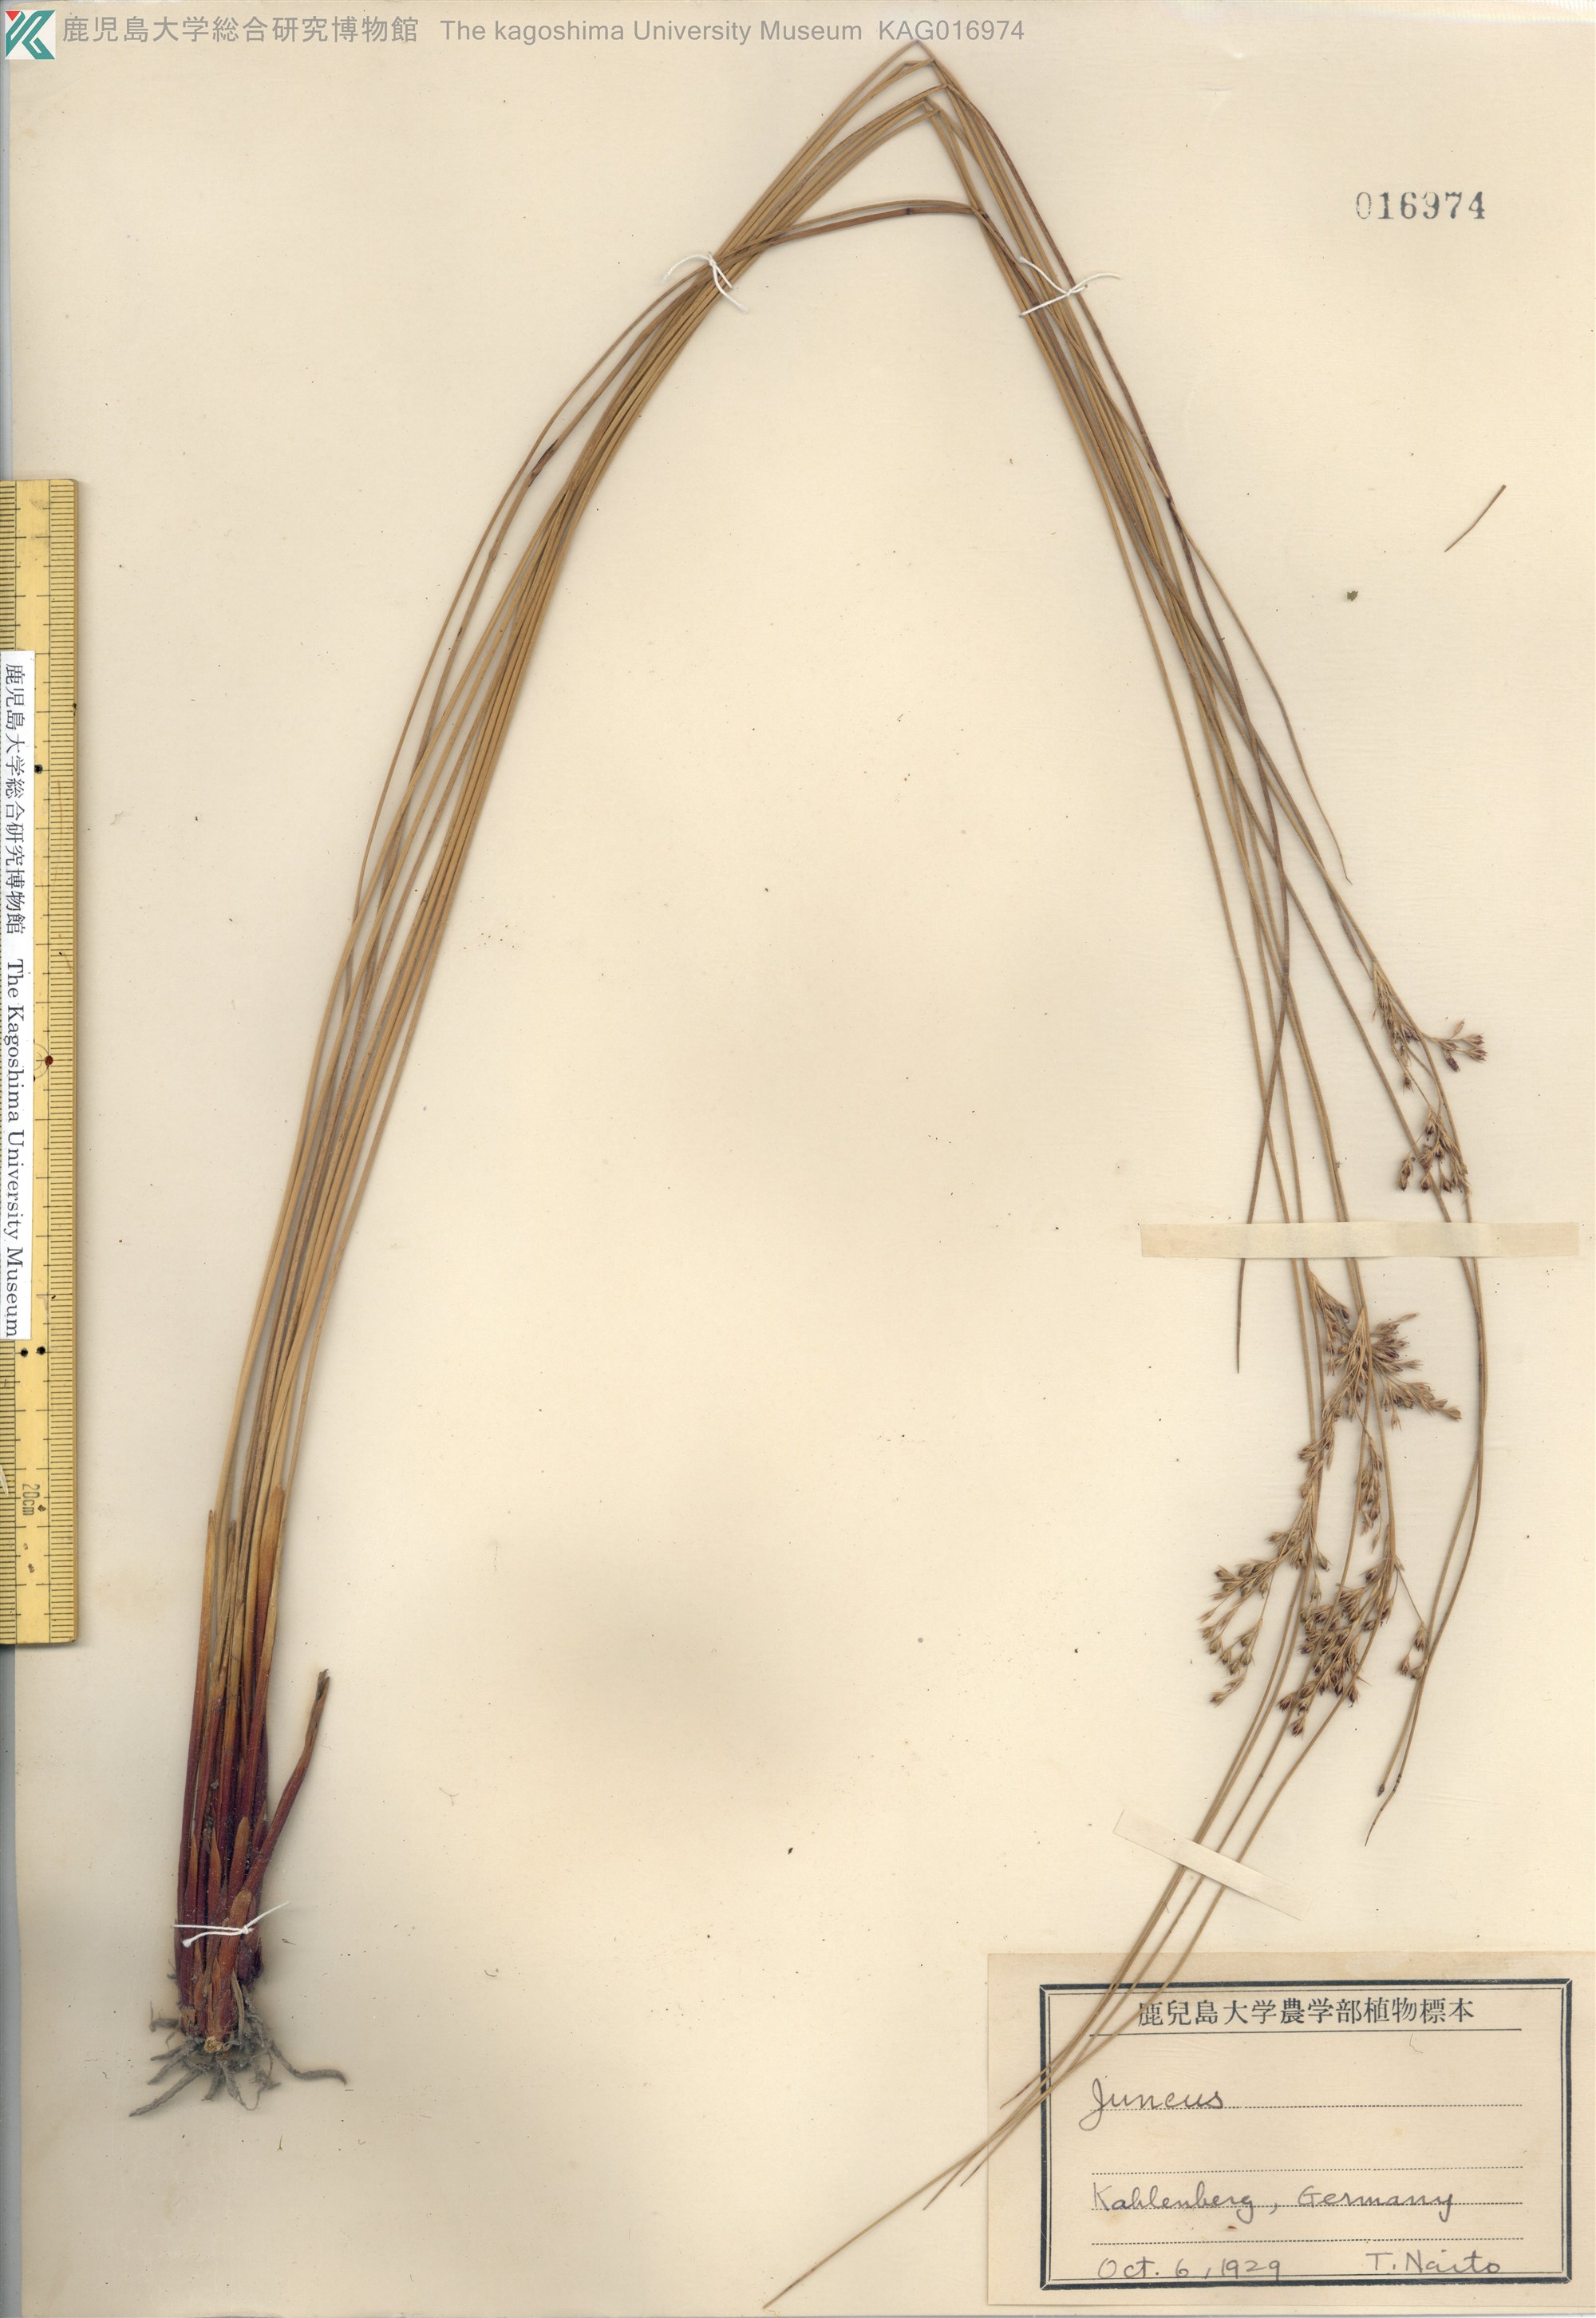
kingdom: Plantae
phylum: Tracheophyta
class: Liliopsida
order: Poales
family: Juncaceae
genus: Juncus
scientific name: Juncus gracillimus
